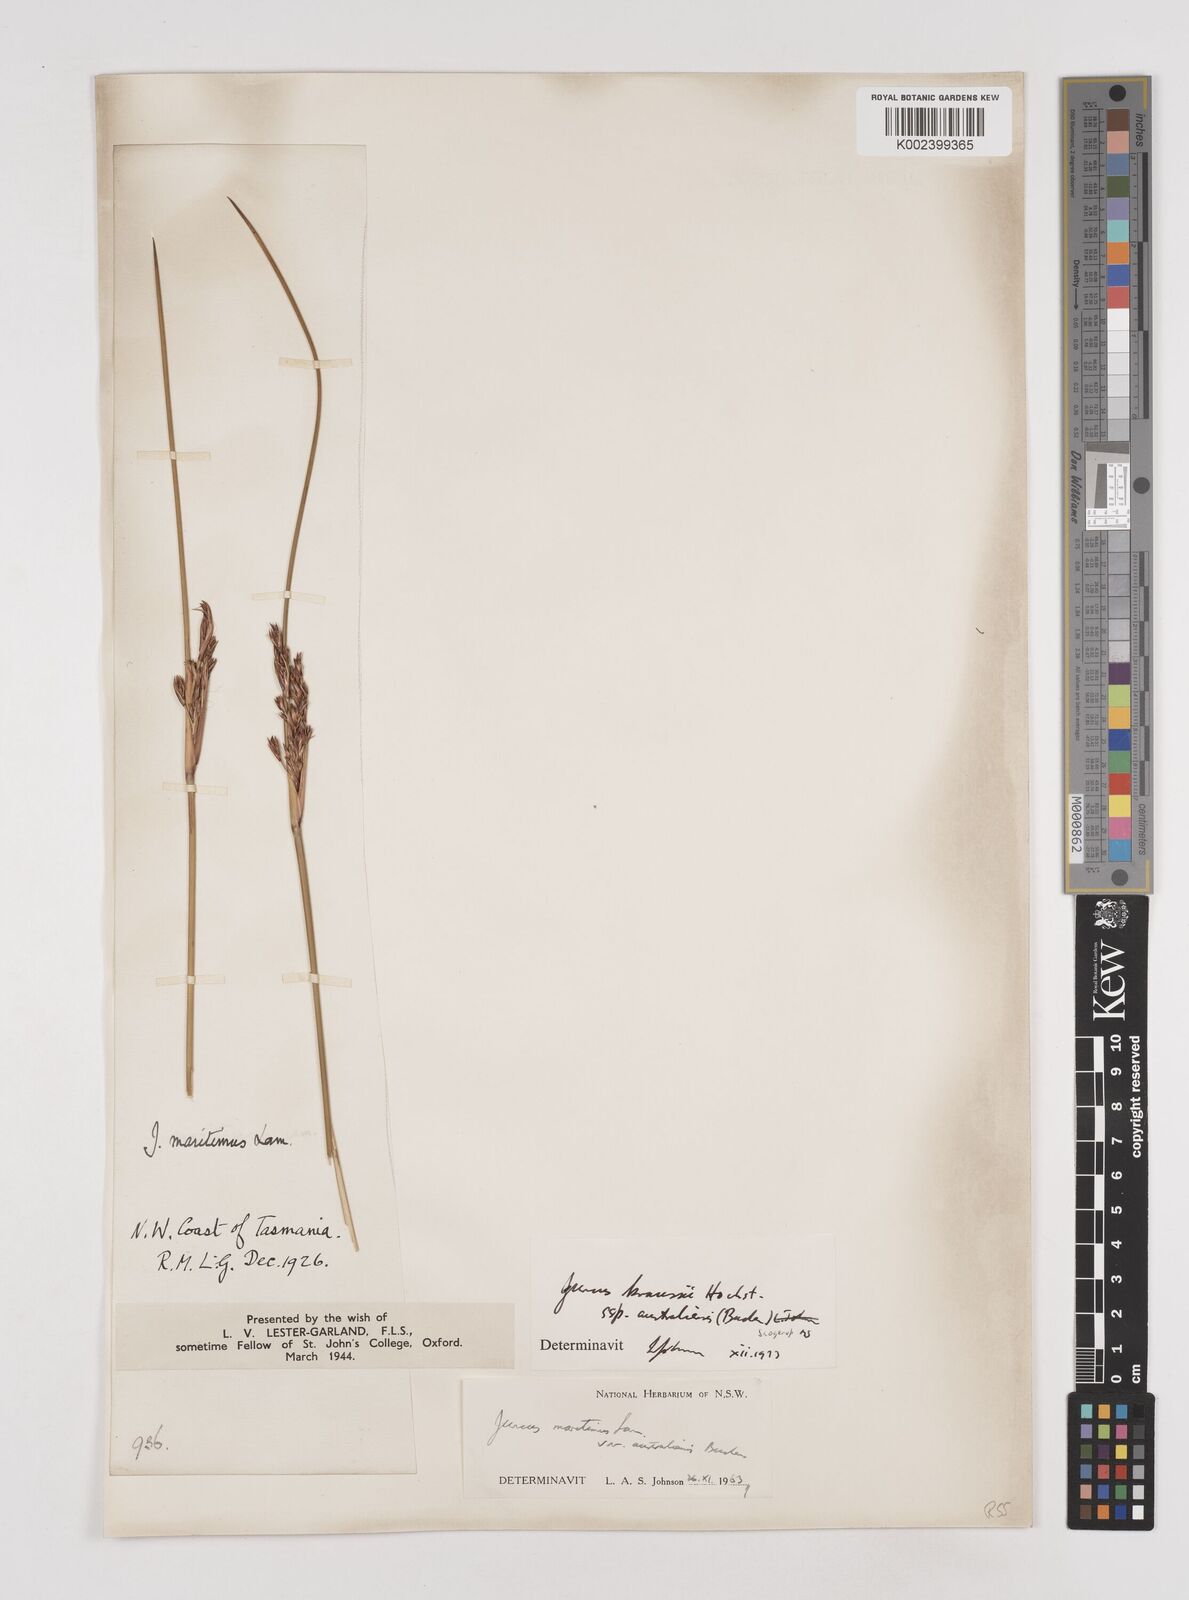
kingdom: Plantae
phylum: Tracheophyta
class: Liliopsida
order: Poales
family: Juncaceae
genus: Juncus
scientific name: Juncus kraussii
